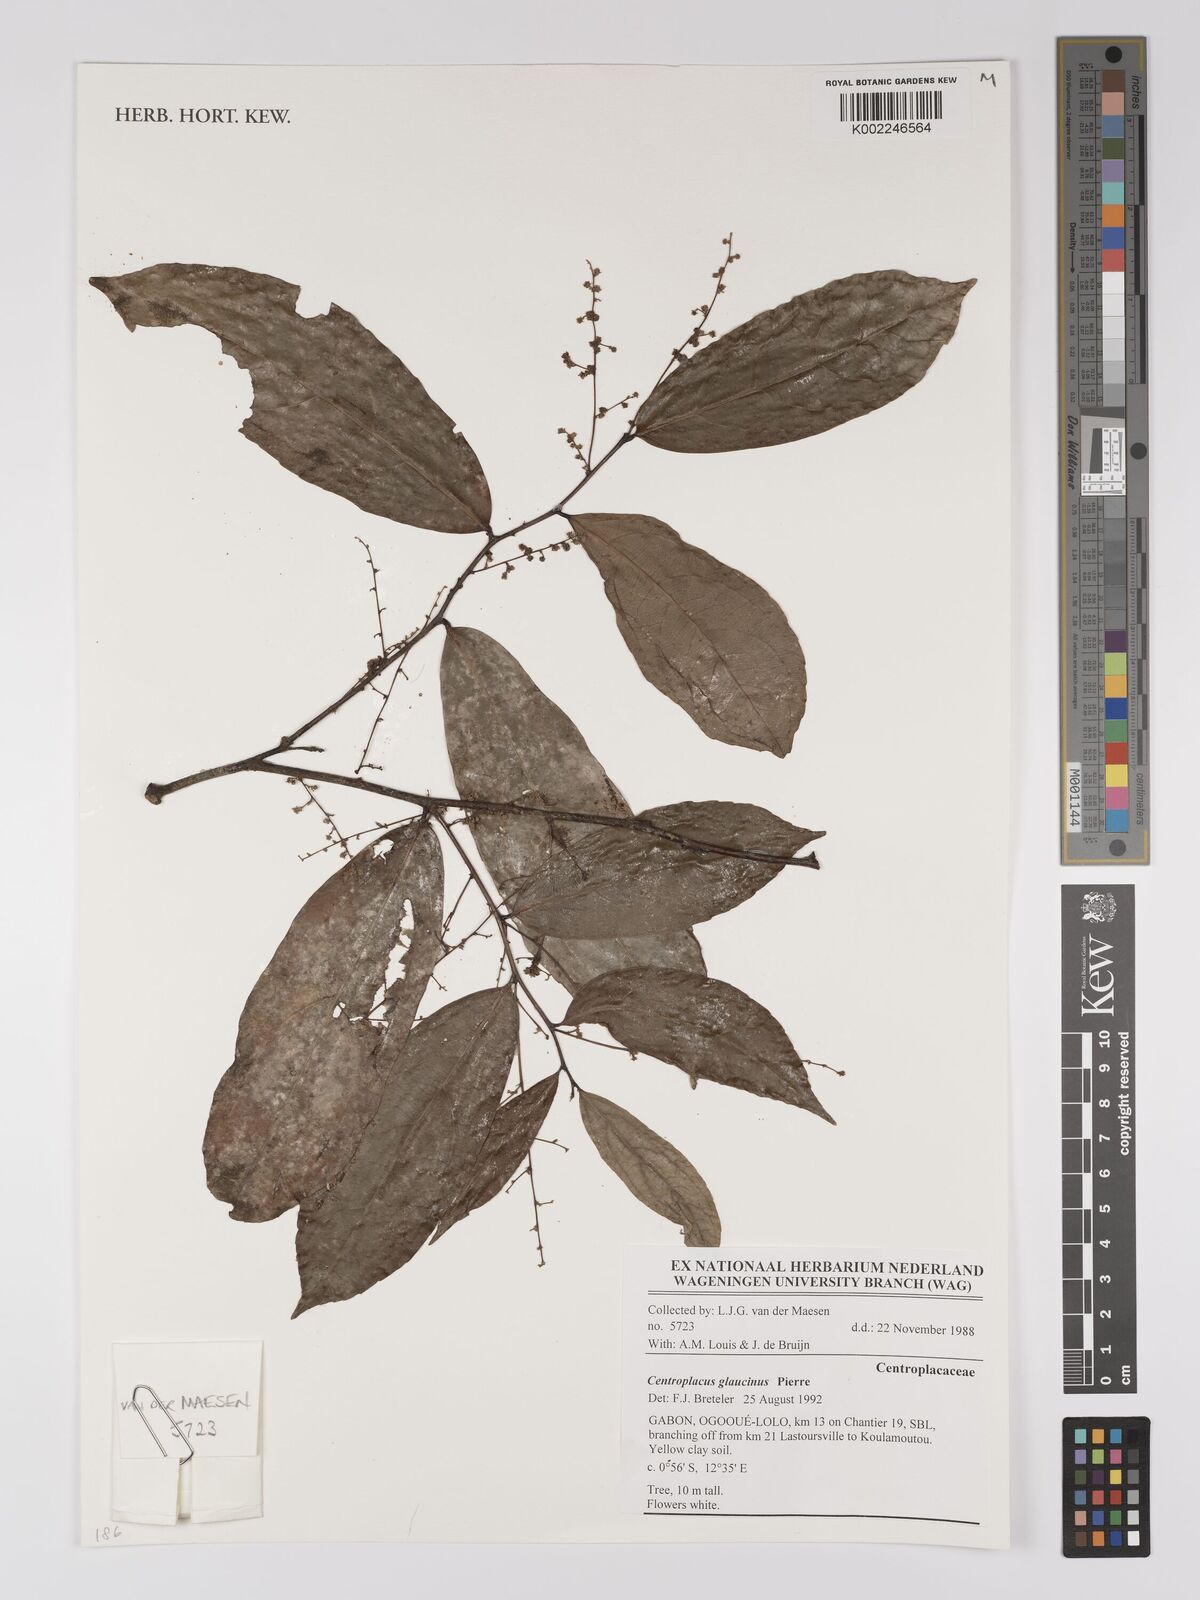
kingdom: Plantae
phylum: Tracheophyta
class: Magnoliopsida
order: Malpighiales
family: Centroplacaceae
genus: Centroplacus
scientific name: Centroplacus glaucinus
